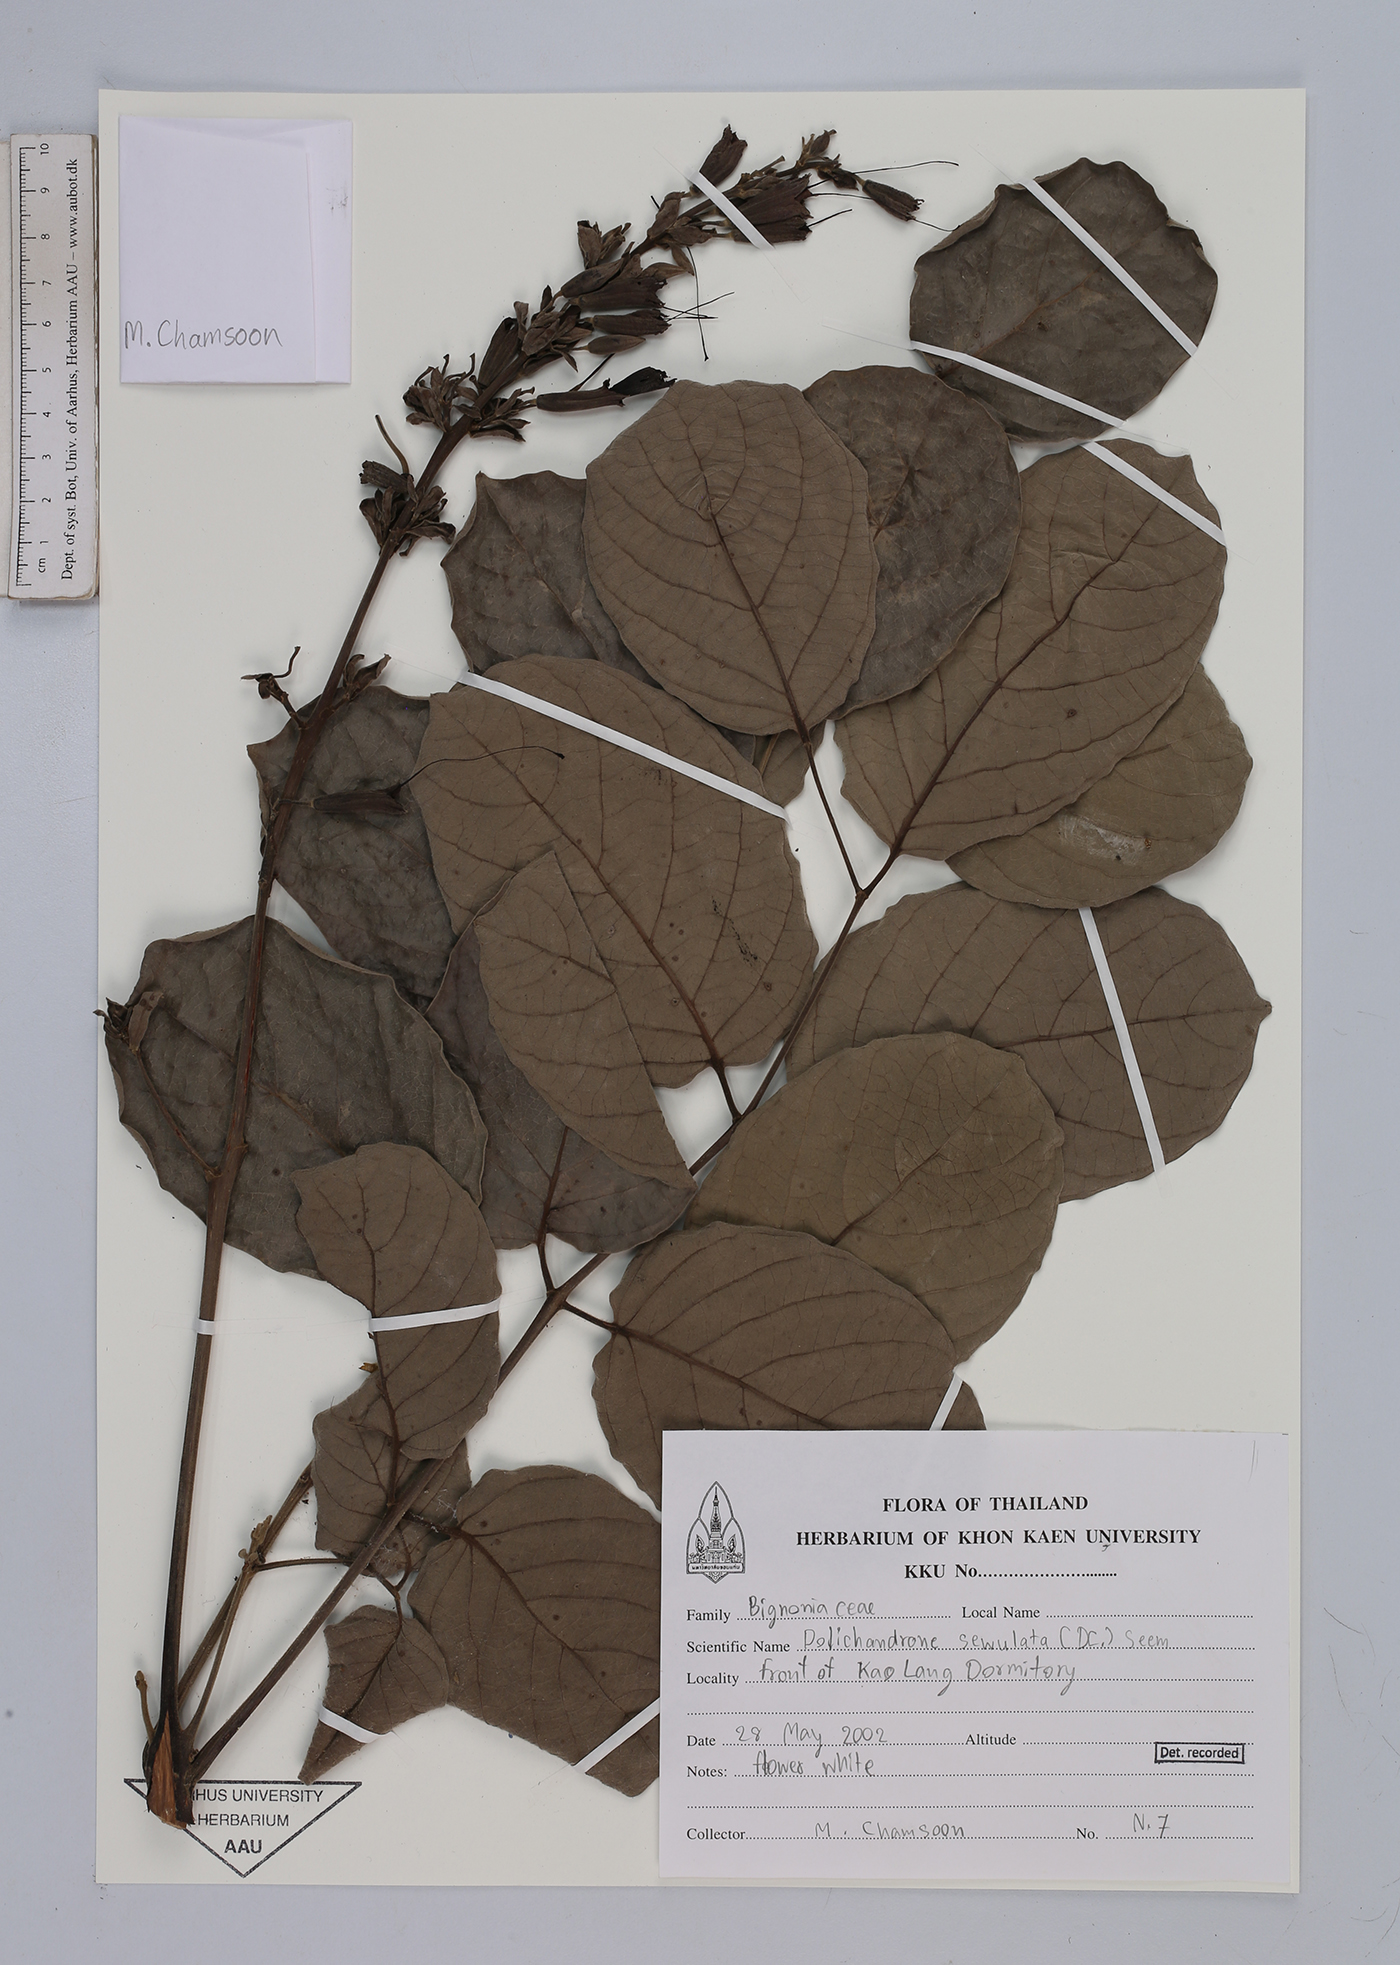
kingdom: Plantae
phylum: Tracheophyta
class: Magnoliopsida
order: Lamiales
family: Bignoniaceae
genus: Dolichandrone
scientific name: Dolichandrone serrulata
